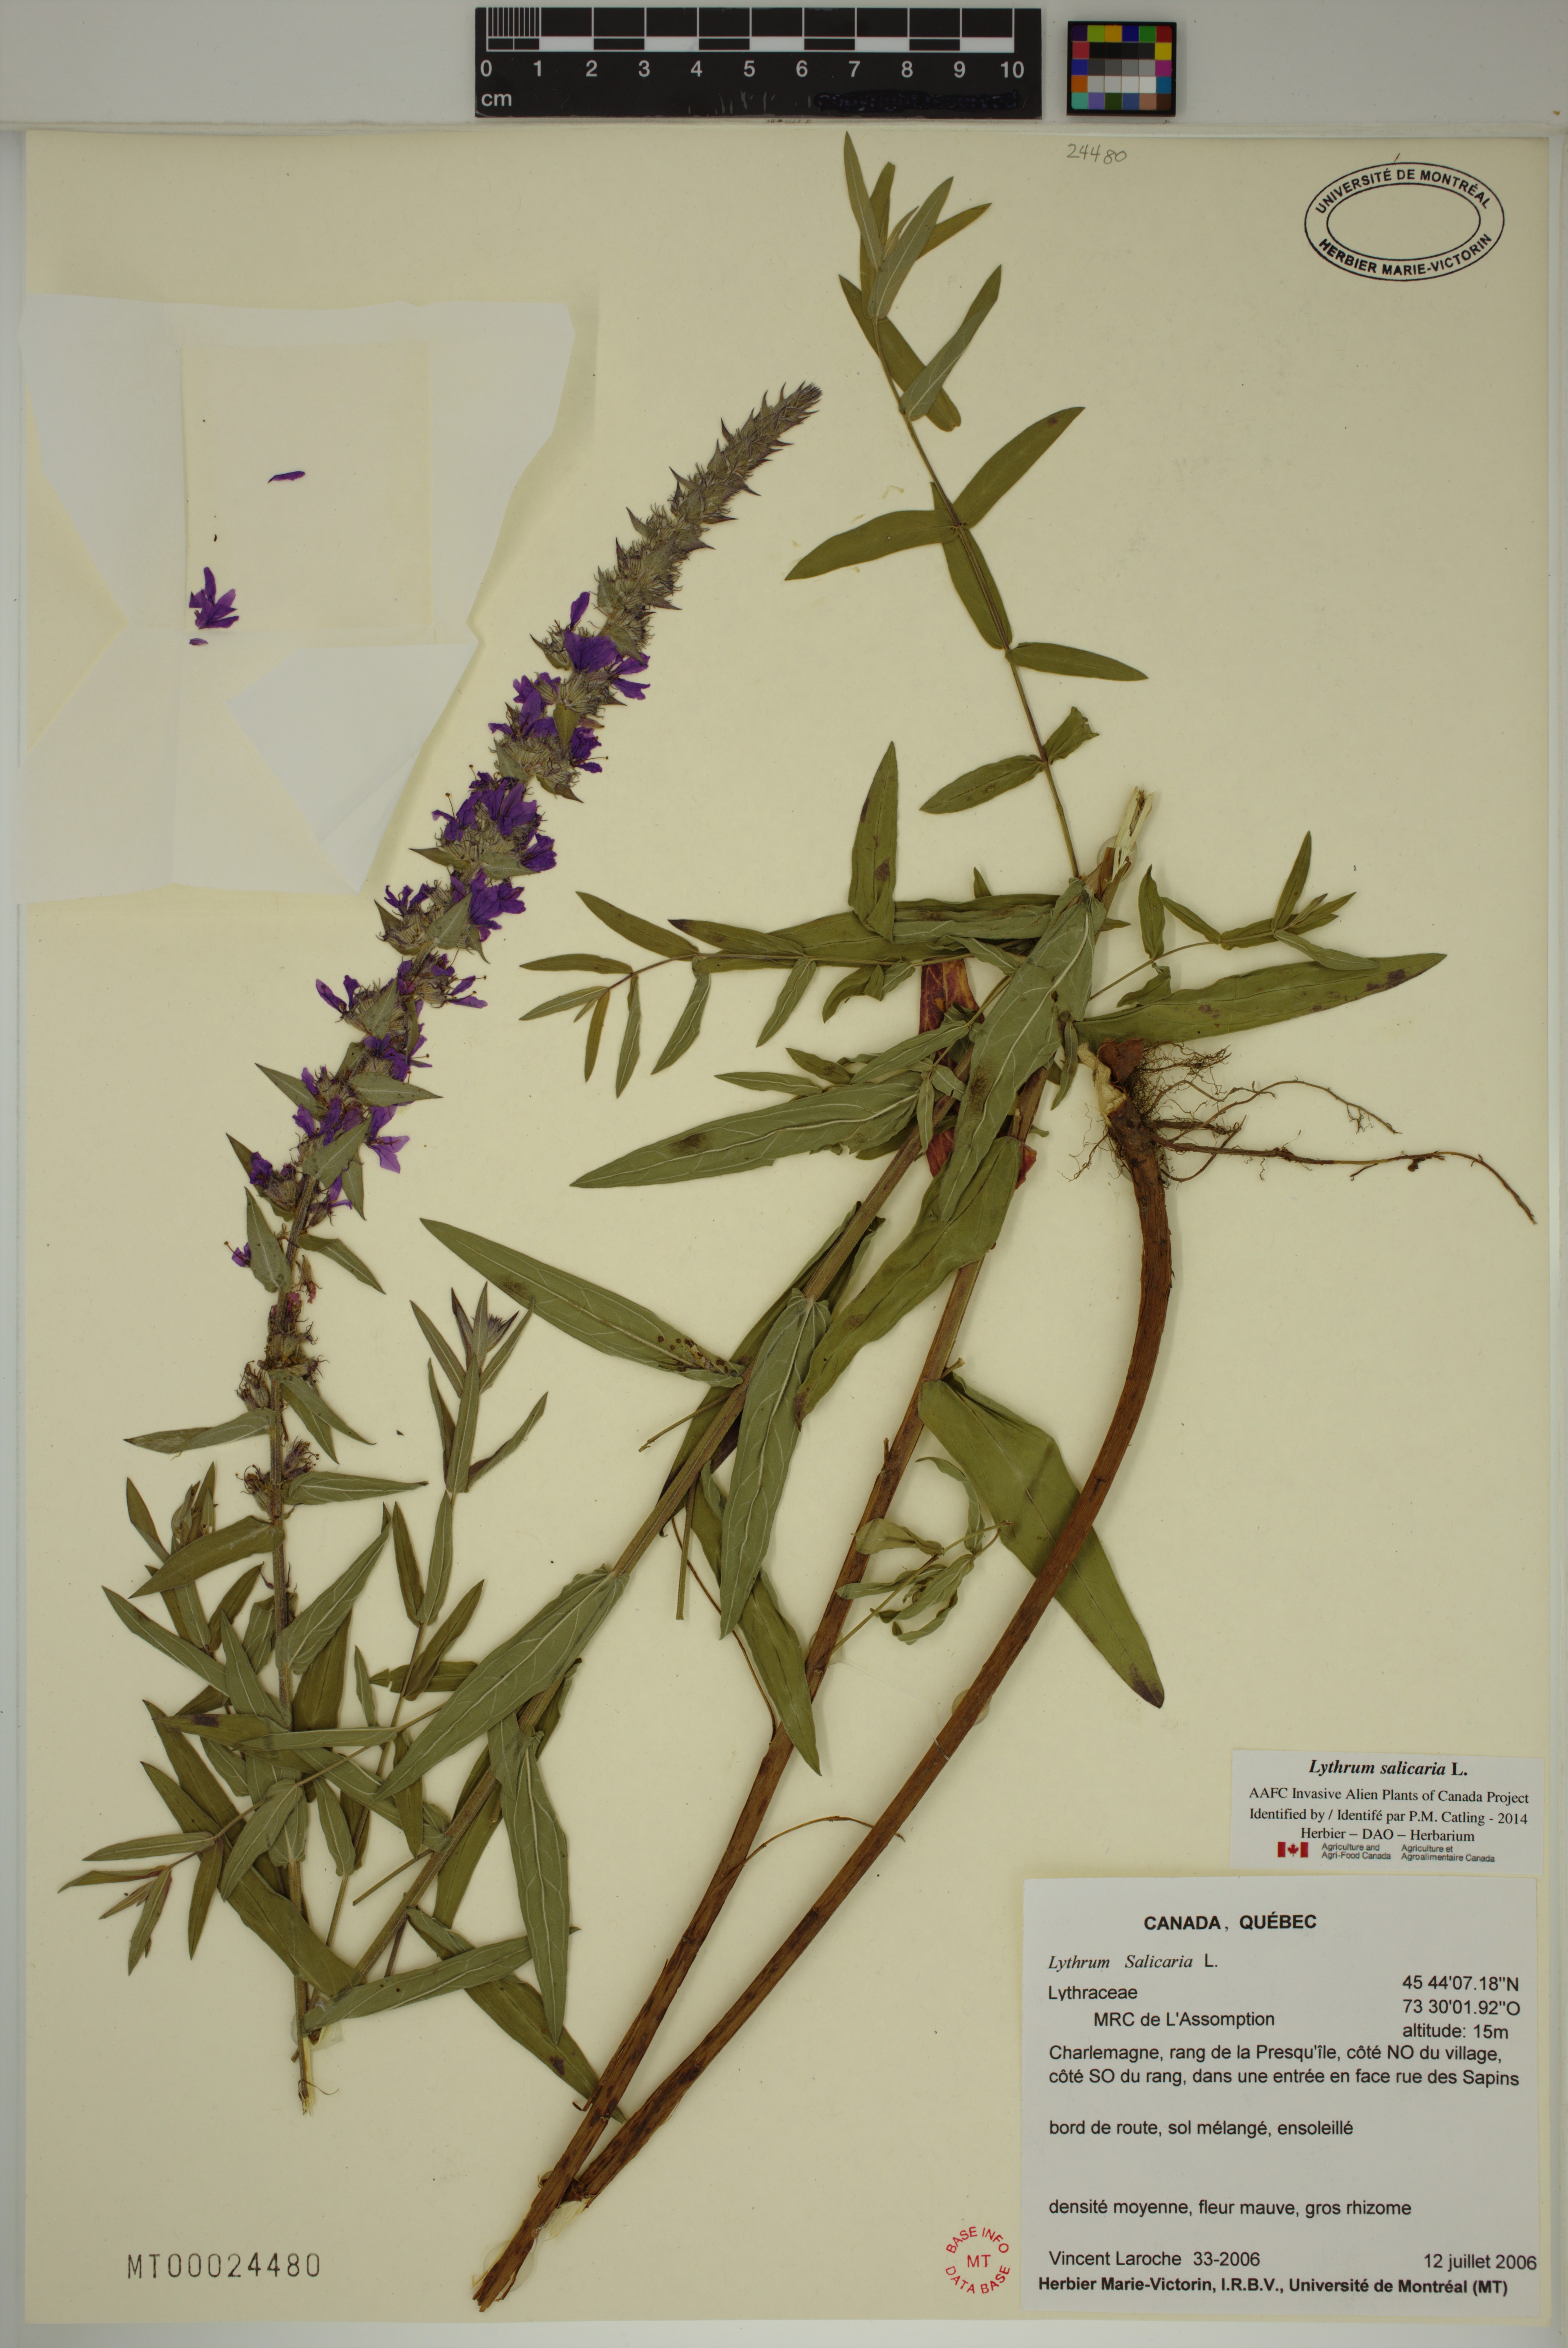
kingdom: Plantae
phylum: Tracheophyta
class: Magnoliopsida
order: Myrtales
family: Lythraceae
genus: Lythrum
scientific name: Lythrum salicaria
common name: Purple loosestrife
